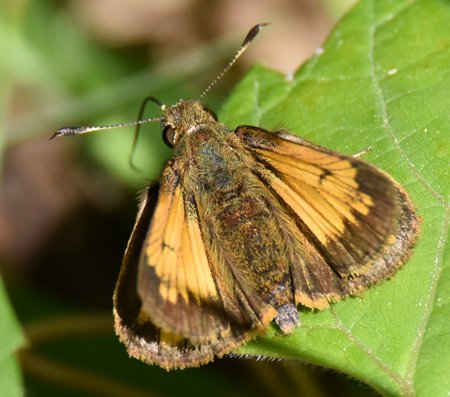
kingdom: Animalia
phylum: Arthropoda
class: Insecta
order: Lepidoptera
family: Hesperiidae
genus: Lon
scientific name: Lon hobomok
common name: Hobomok Skipper
